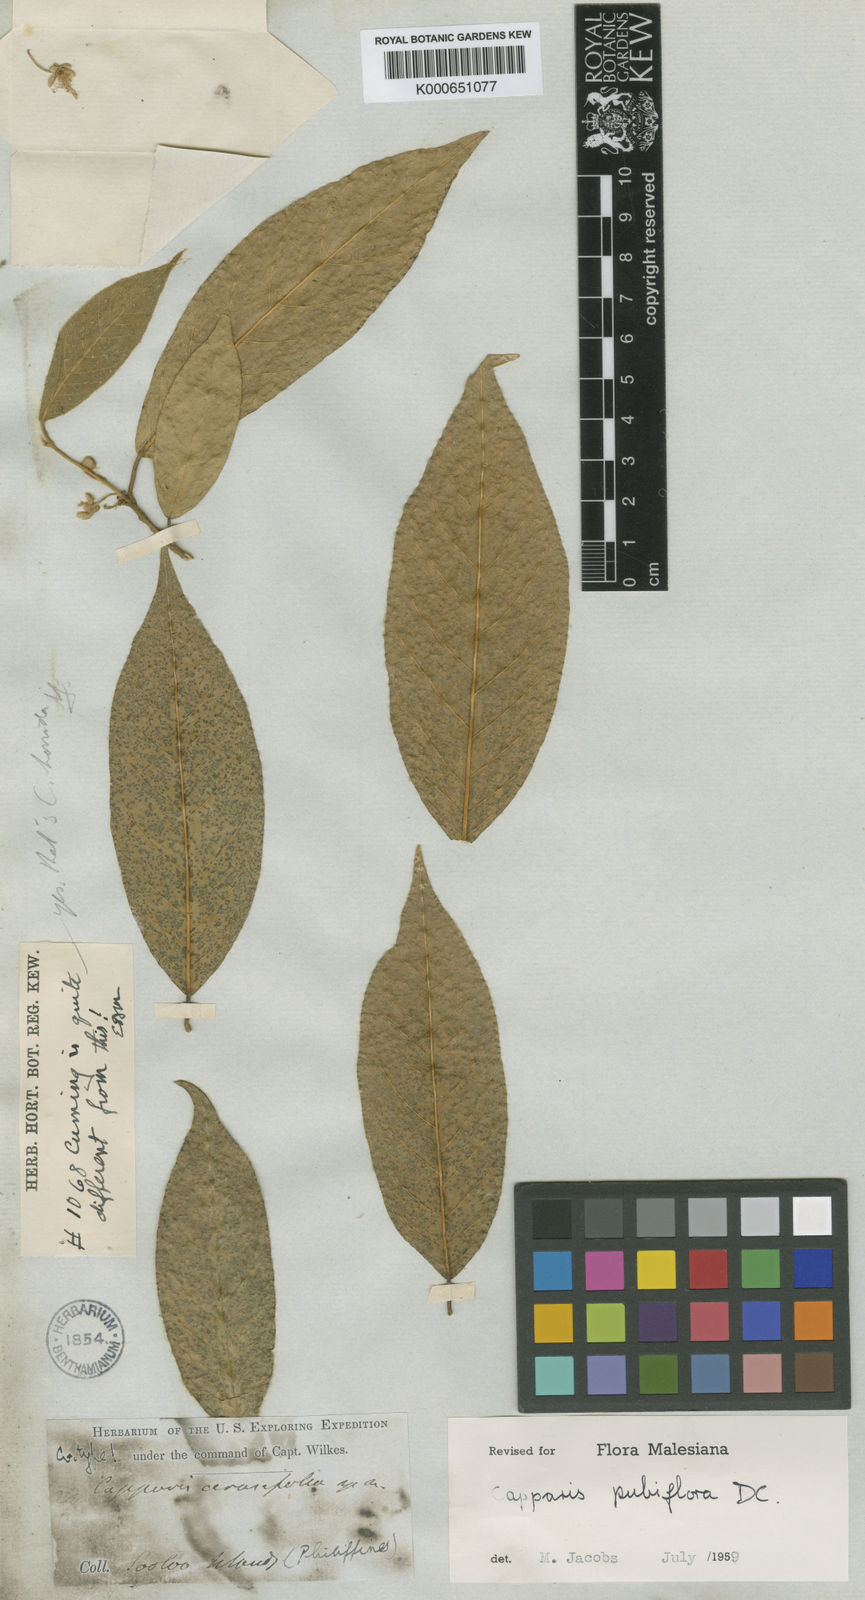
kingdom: Plantae
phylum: Tracheophyta
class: Magnoliopsida
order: Brassicales
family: Capparaceae
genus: Capparis
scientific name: Capparis pubiflora
